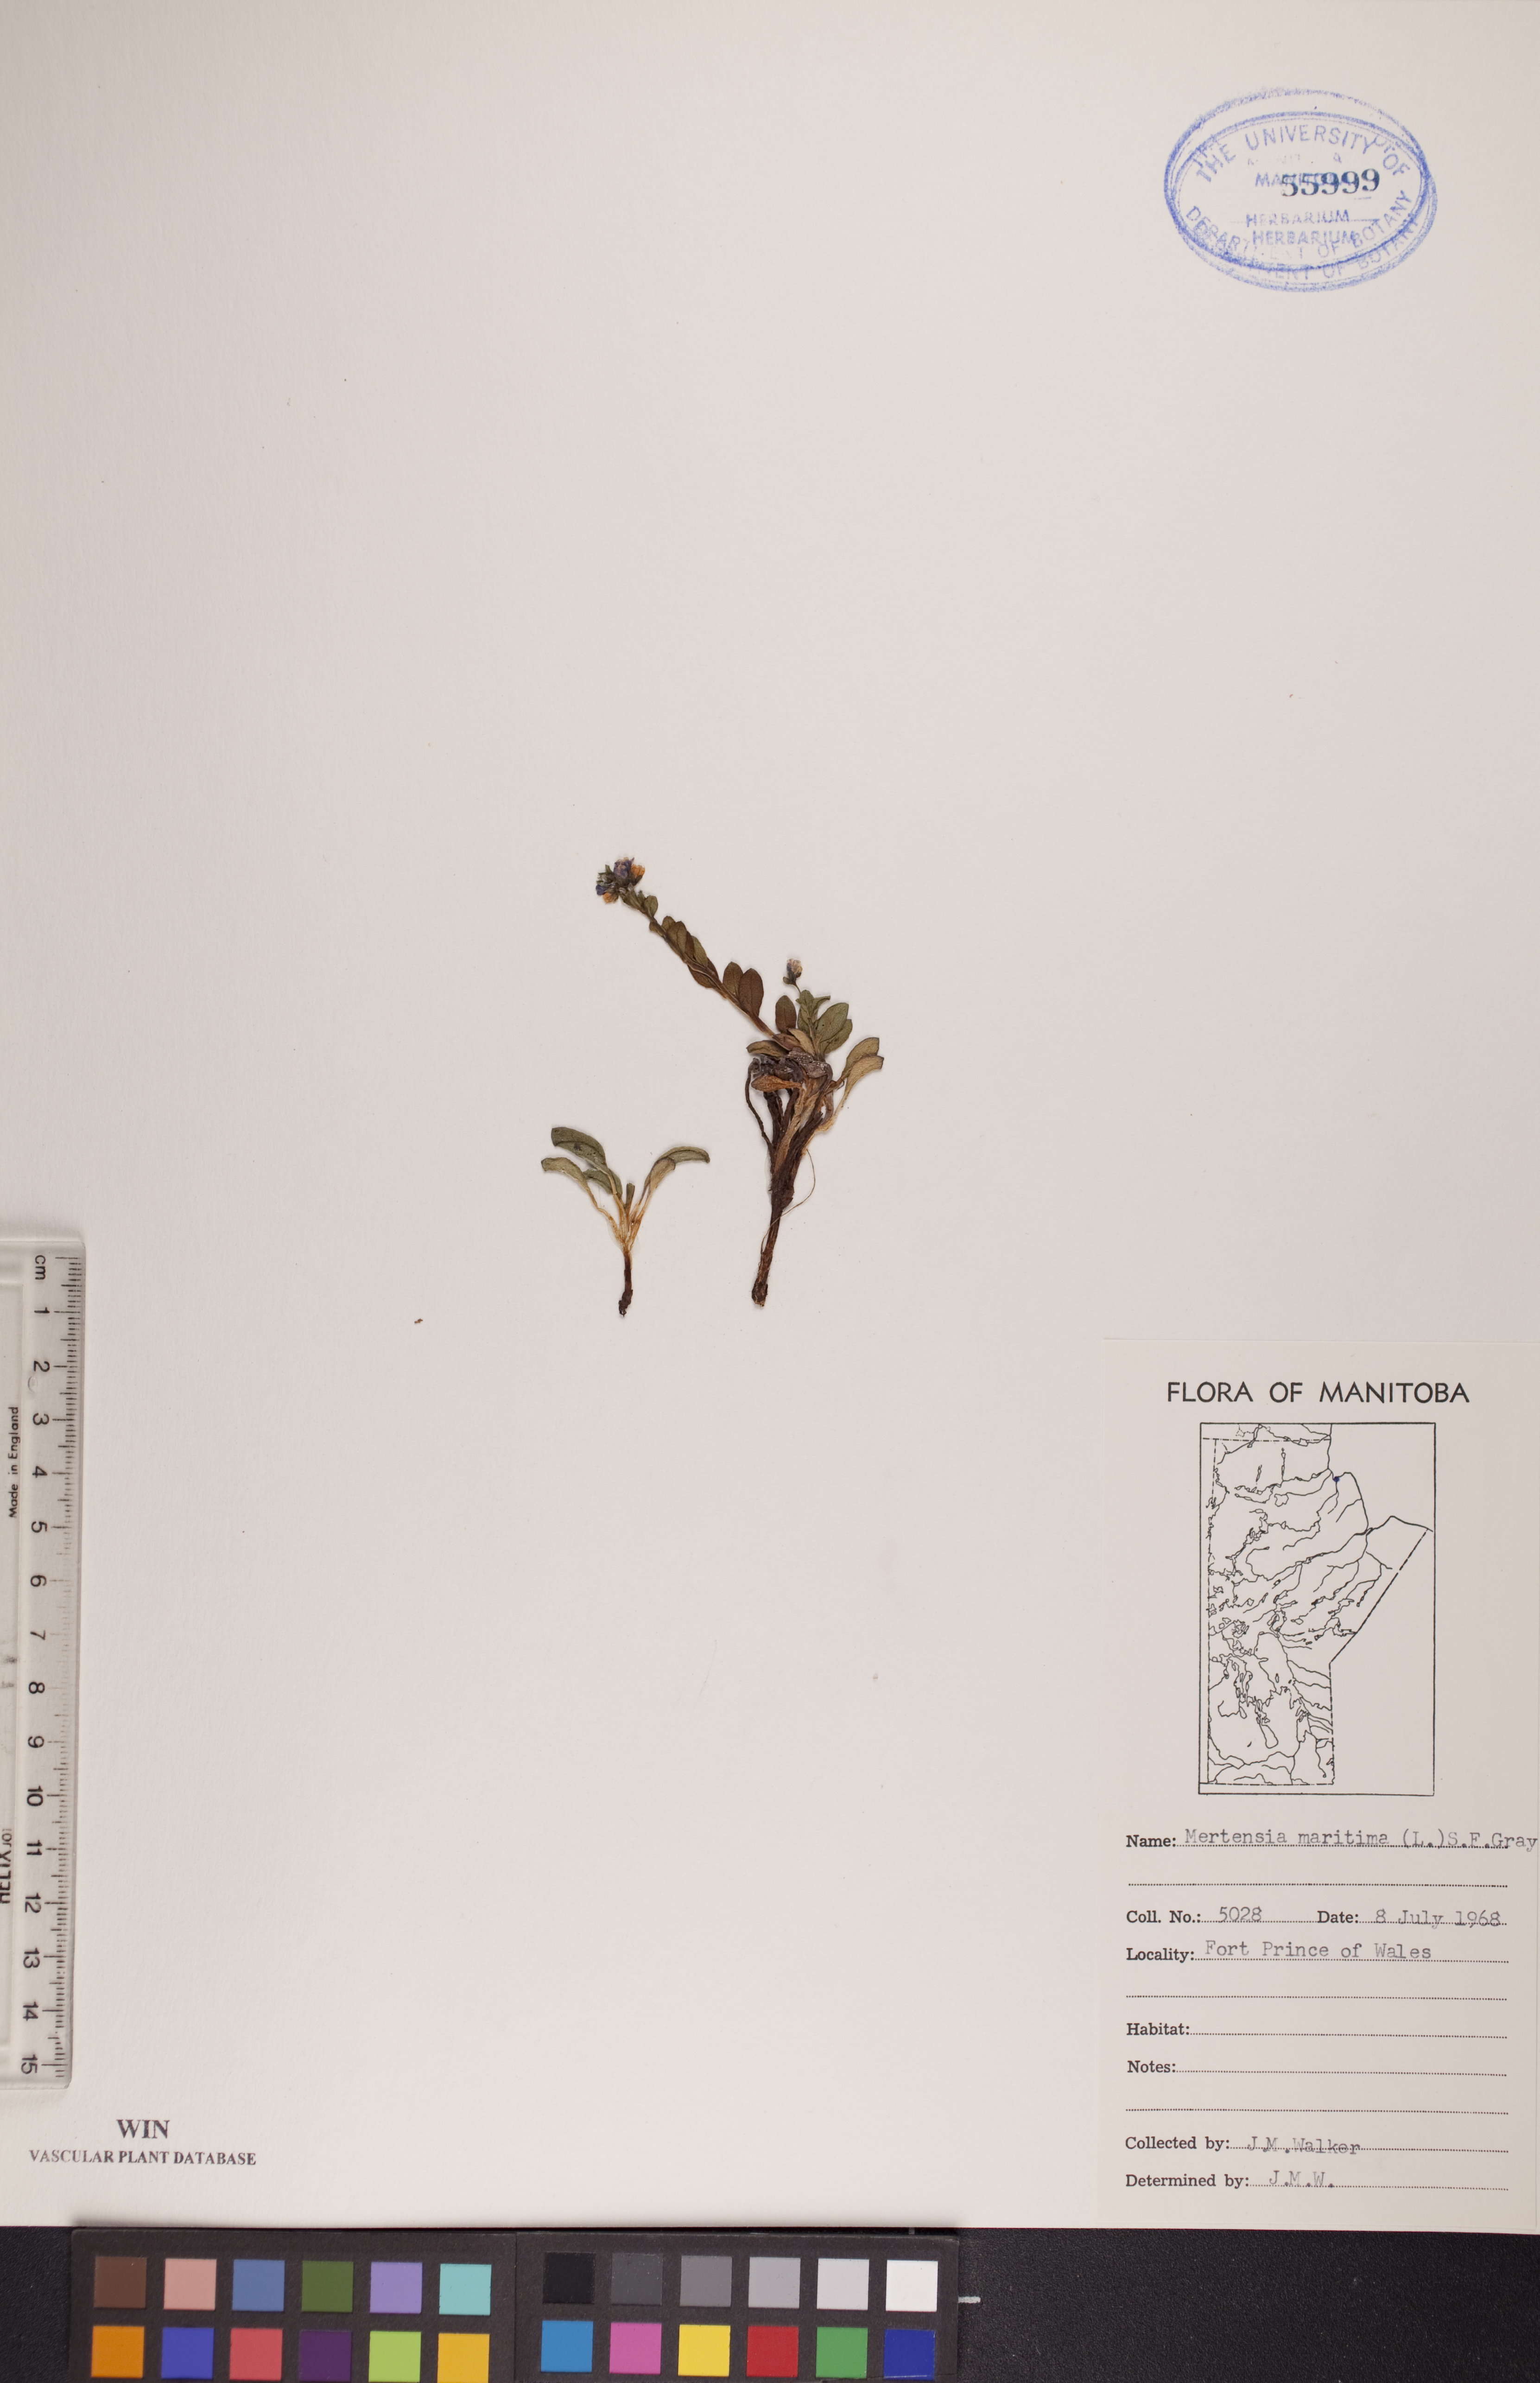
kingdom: Plantae
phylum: Tracheophyta
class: Magnoliopsida
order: Boraginales
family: Boraginaceae
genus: Mertensia
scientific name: Mertensia maritima
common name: Oysterplant
